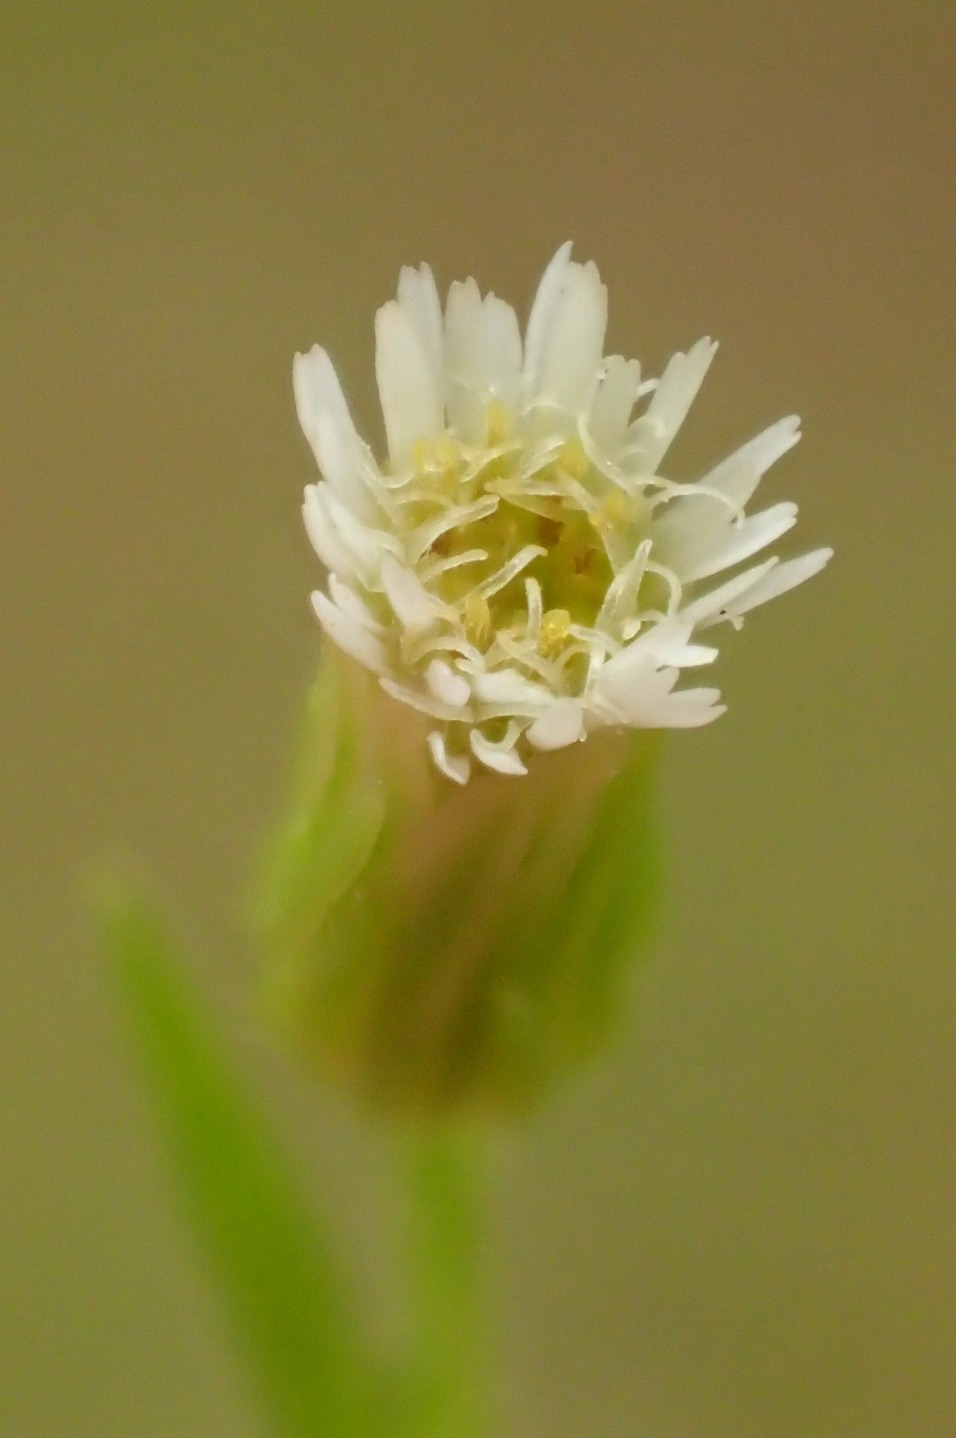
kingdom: Plantae
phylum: Tracheophyta
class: Magnoliopsida
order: Asterales
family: Asteraceae
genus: Erigeron
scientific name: Erigeron canadensis
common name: Kanadisk bakkestjerne
